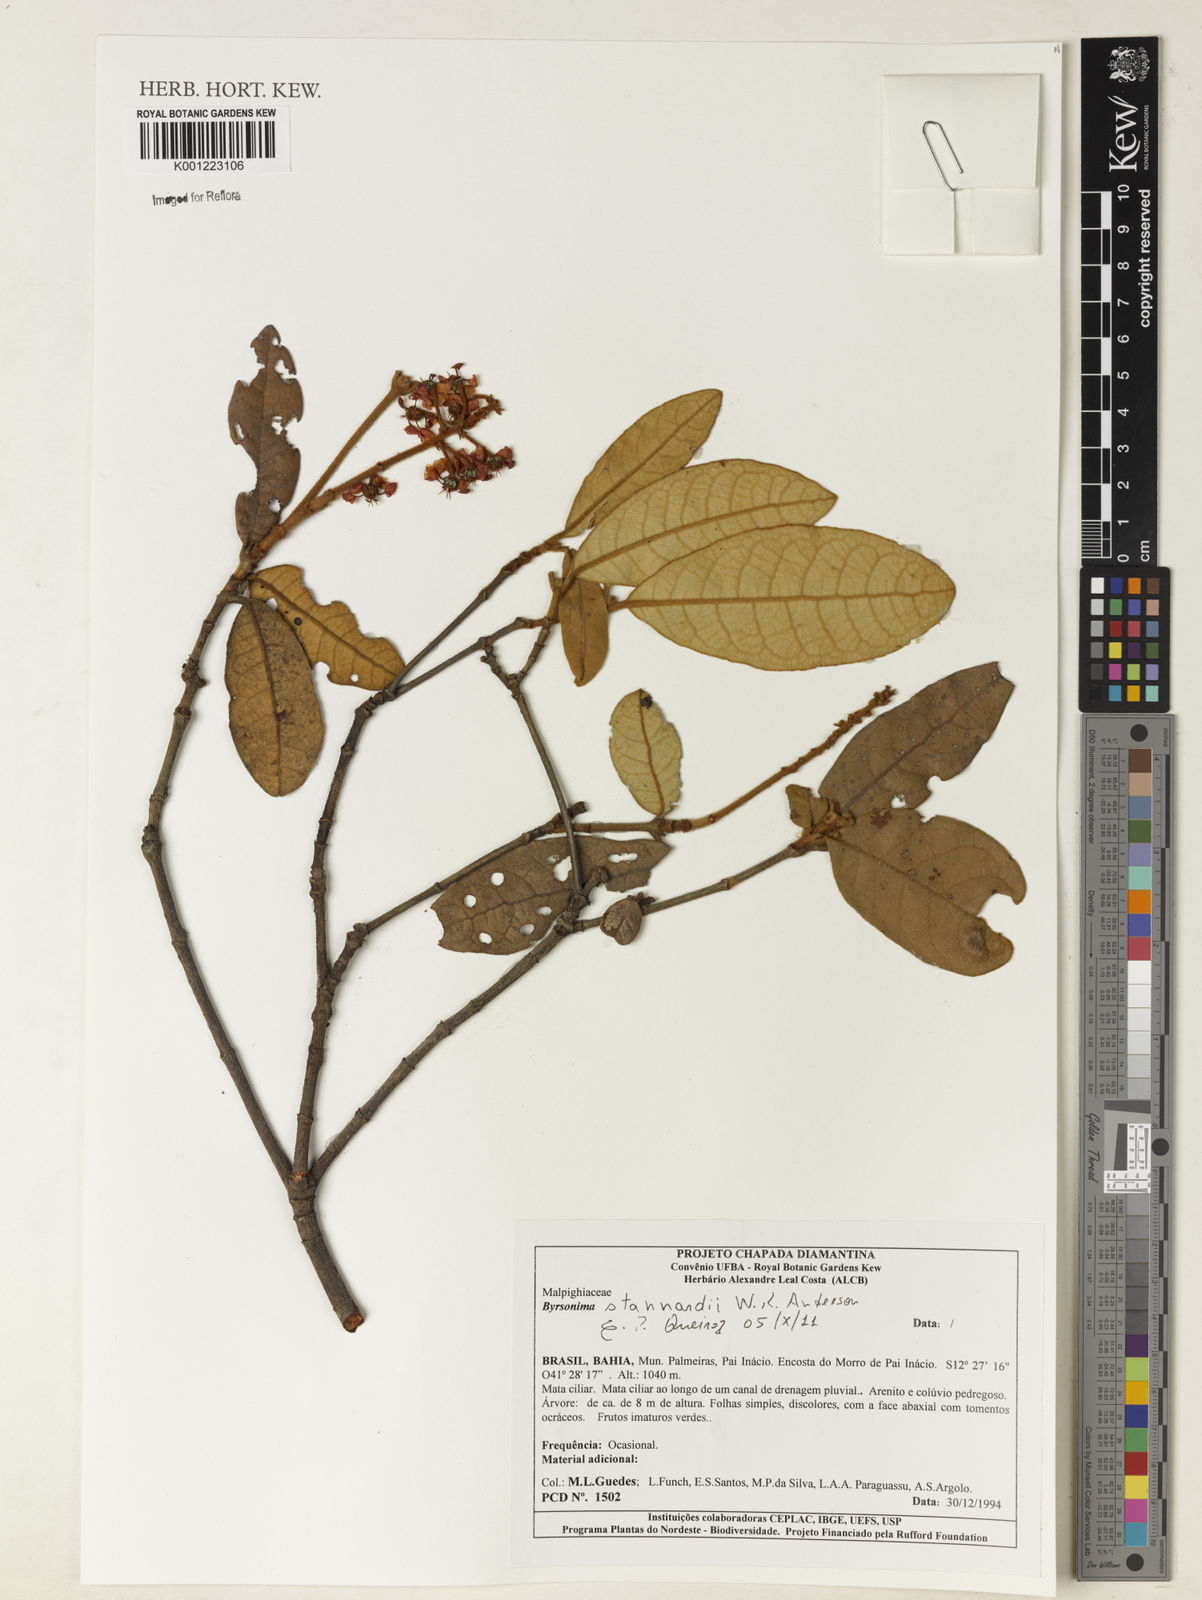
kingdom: Plantae
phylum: Tracheophyta
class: Magnoliopsida
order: Malpighiales
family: Malpighiaceae
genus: Byrsonima
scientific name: Byrsonima stannardii
